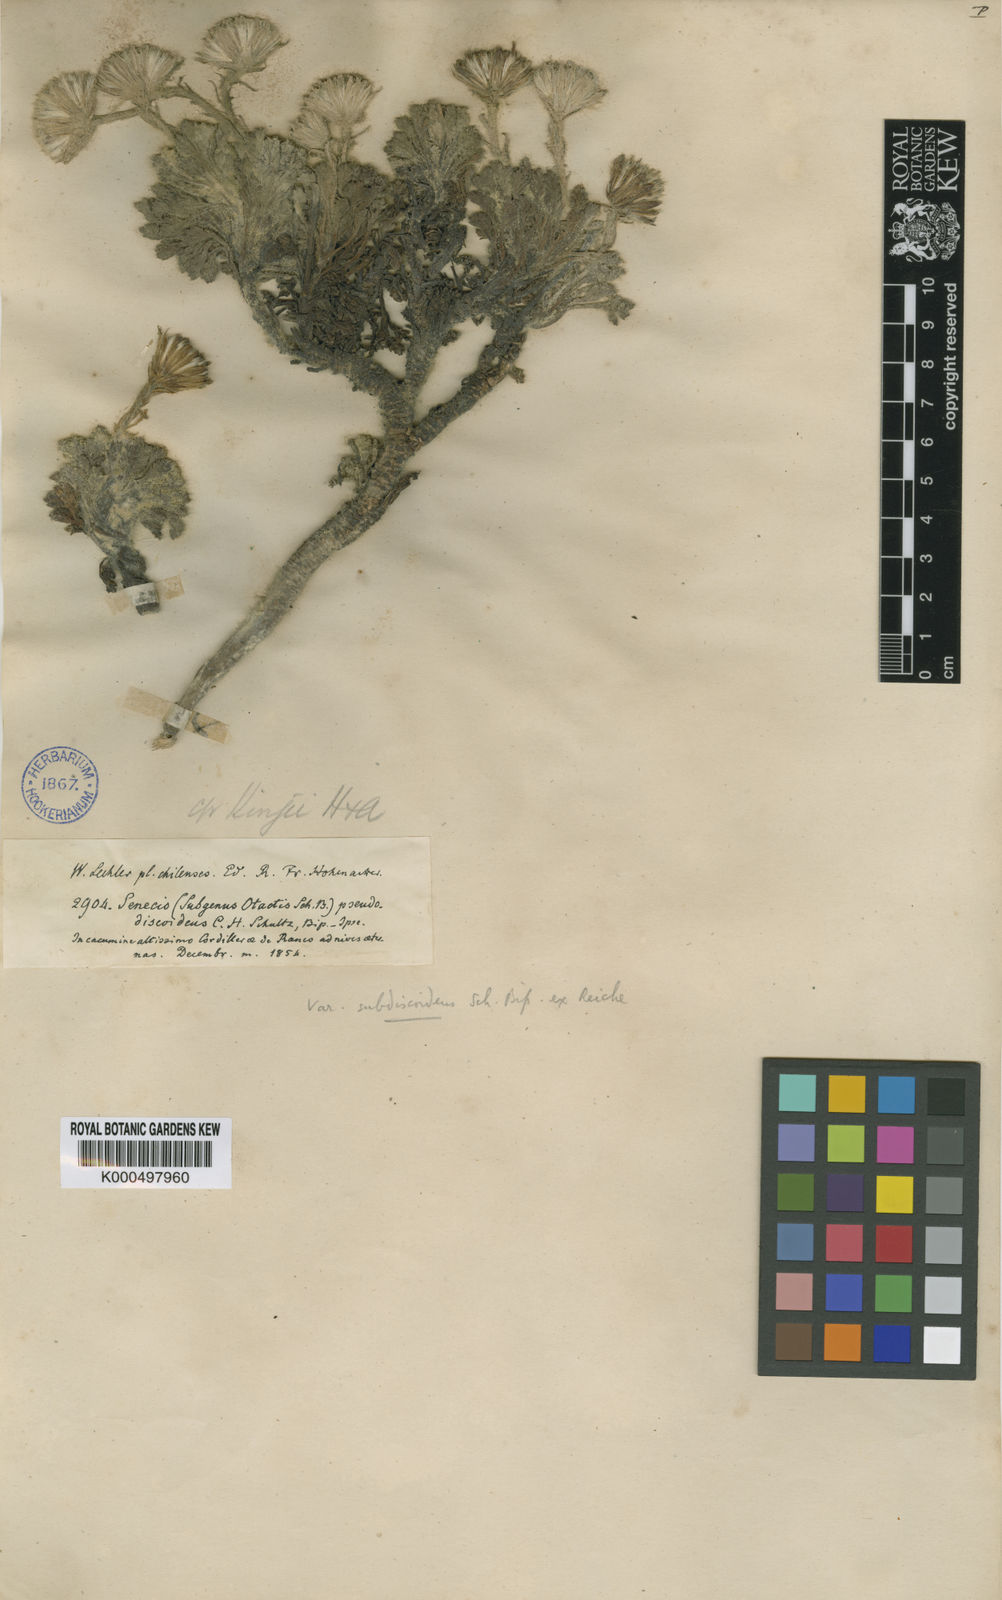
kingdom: Plantae
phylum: Tracheophyta
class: Magnoliopsida
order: Asterales
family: Asteraceae
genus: Senecio
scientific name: Senecio
